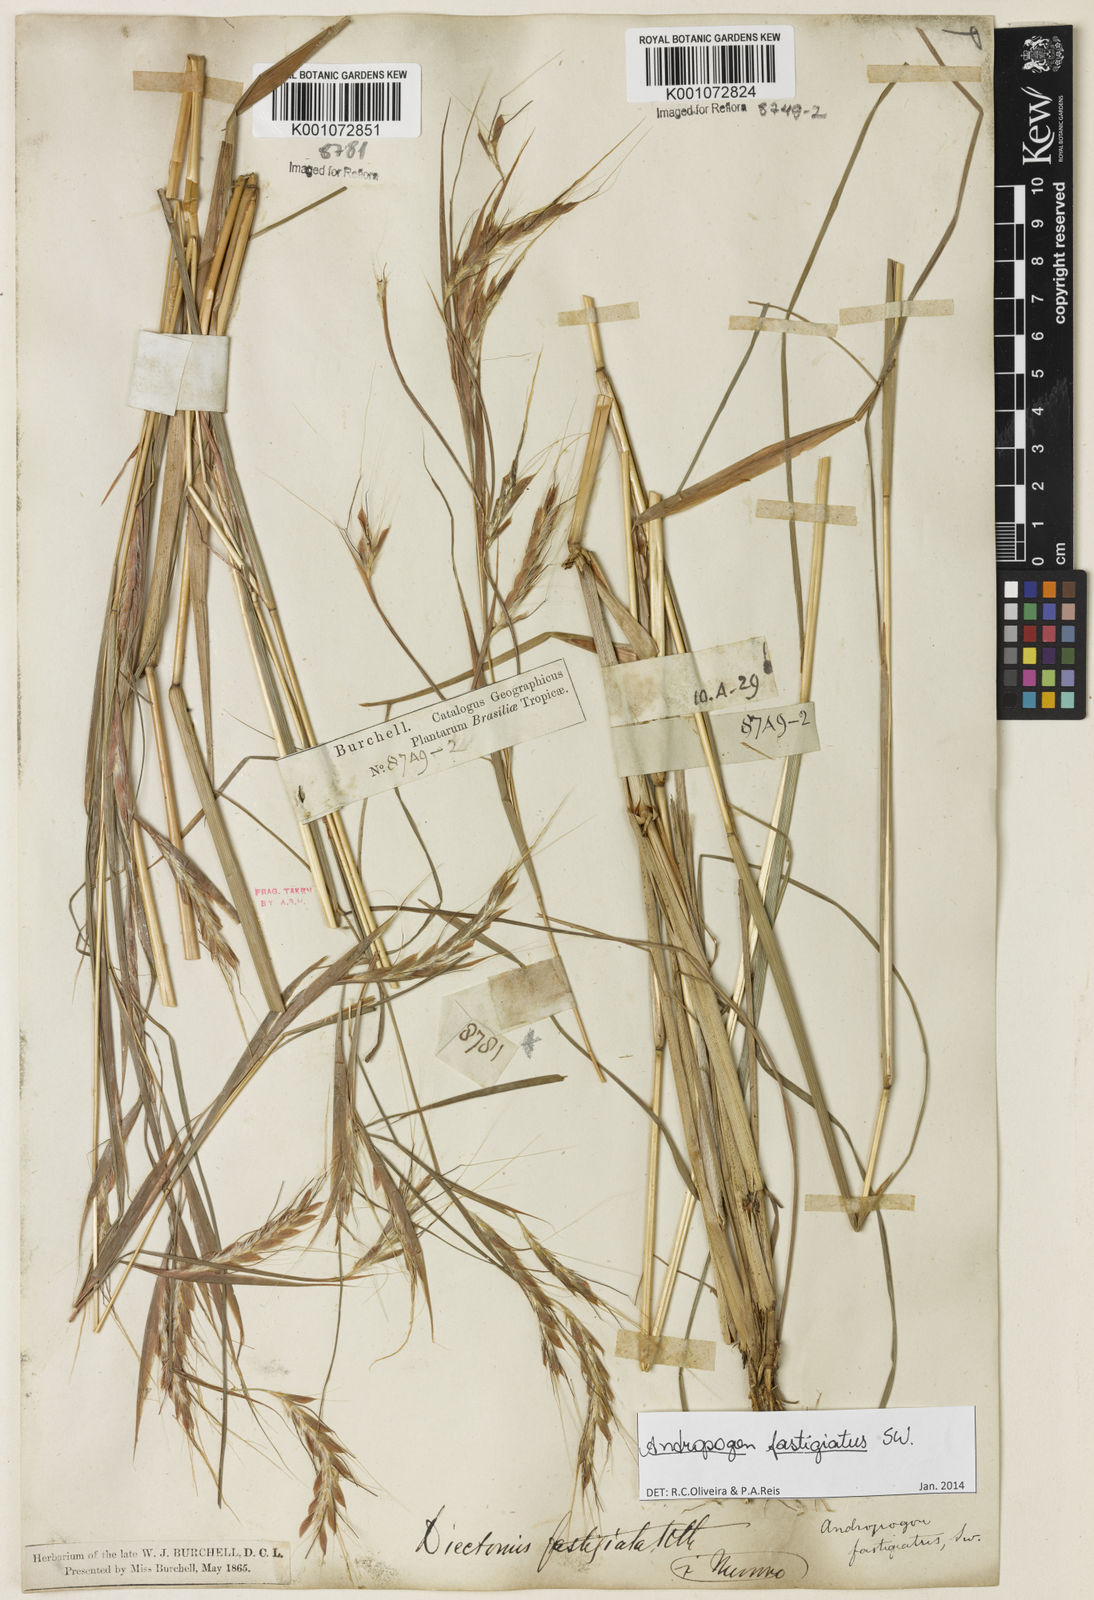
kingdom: Plantae
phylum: Tracheophyta
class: Liliopsida
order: Poales
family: Poaceae
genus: Diectomis
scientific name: Diectomis fastigiata
